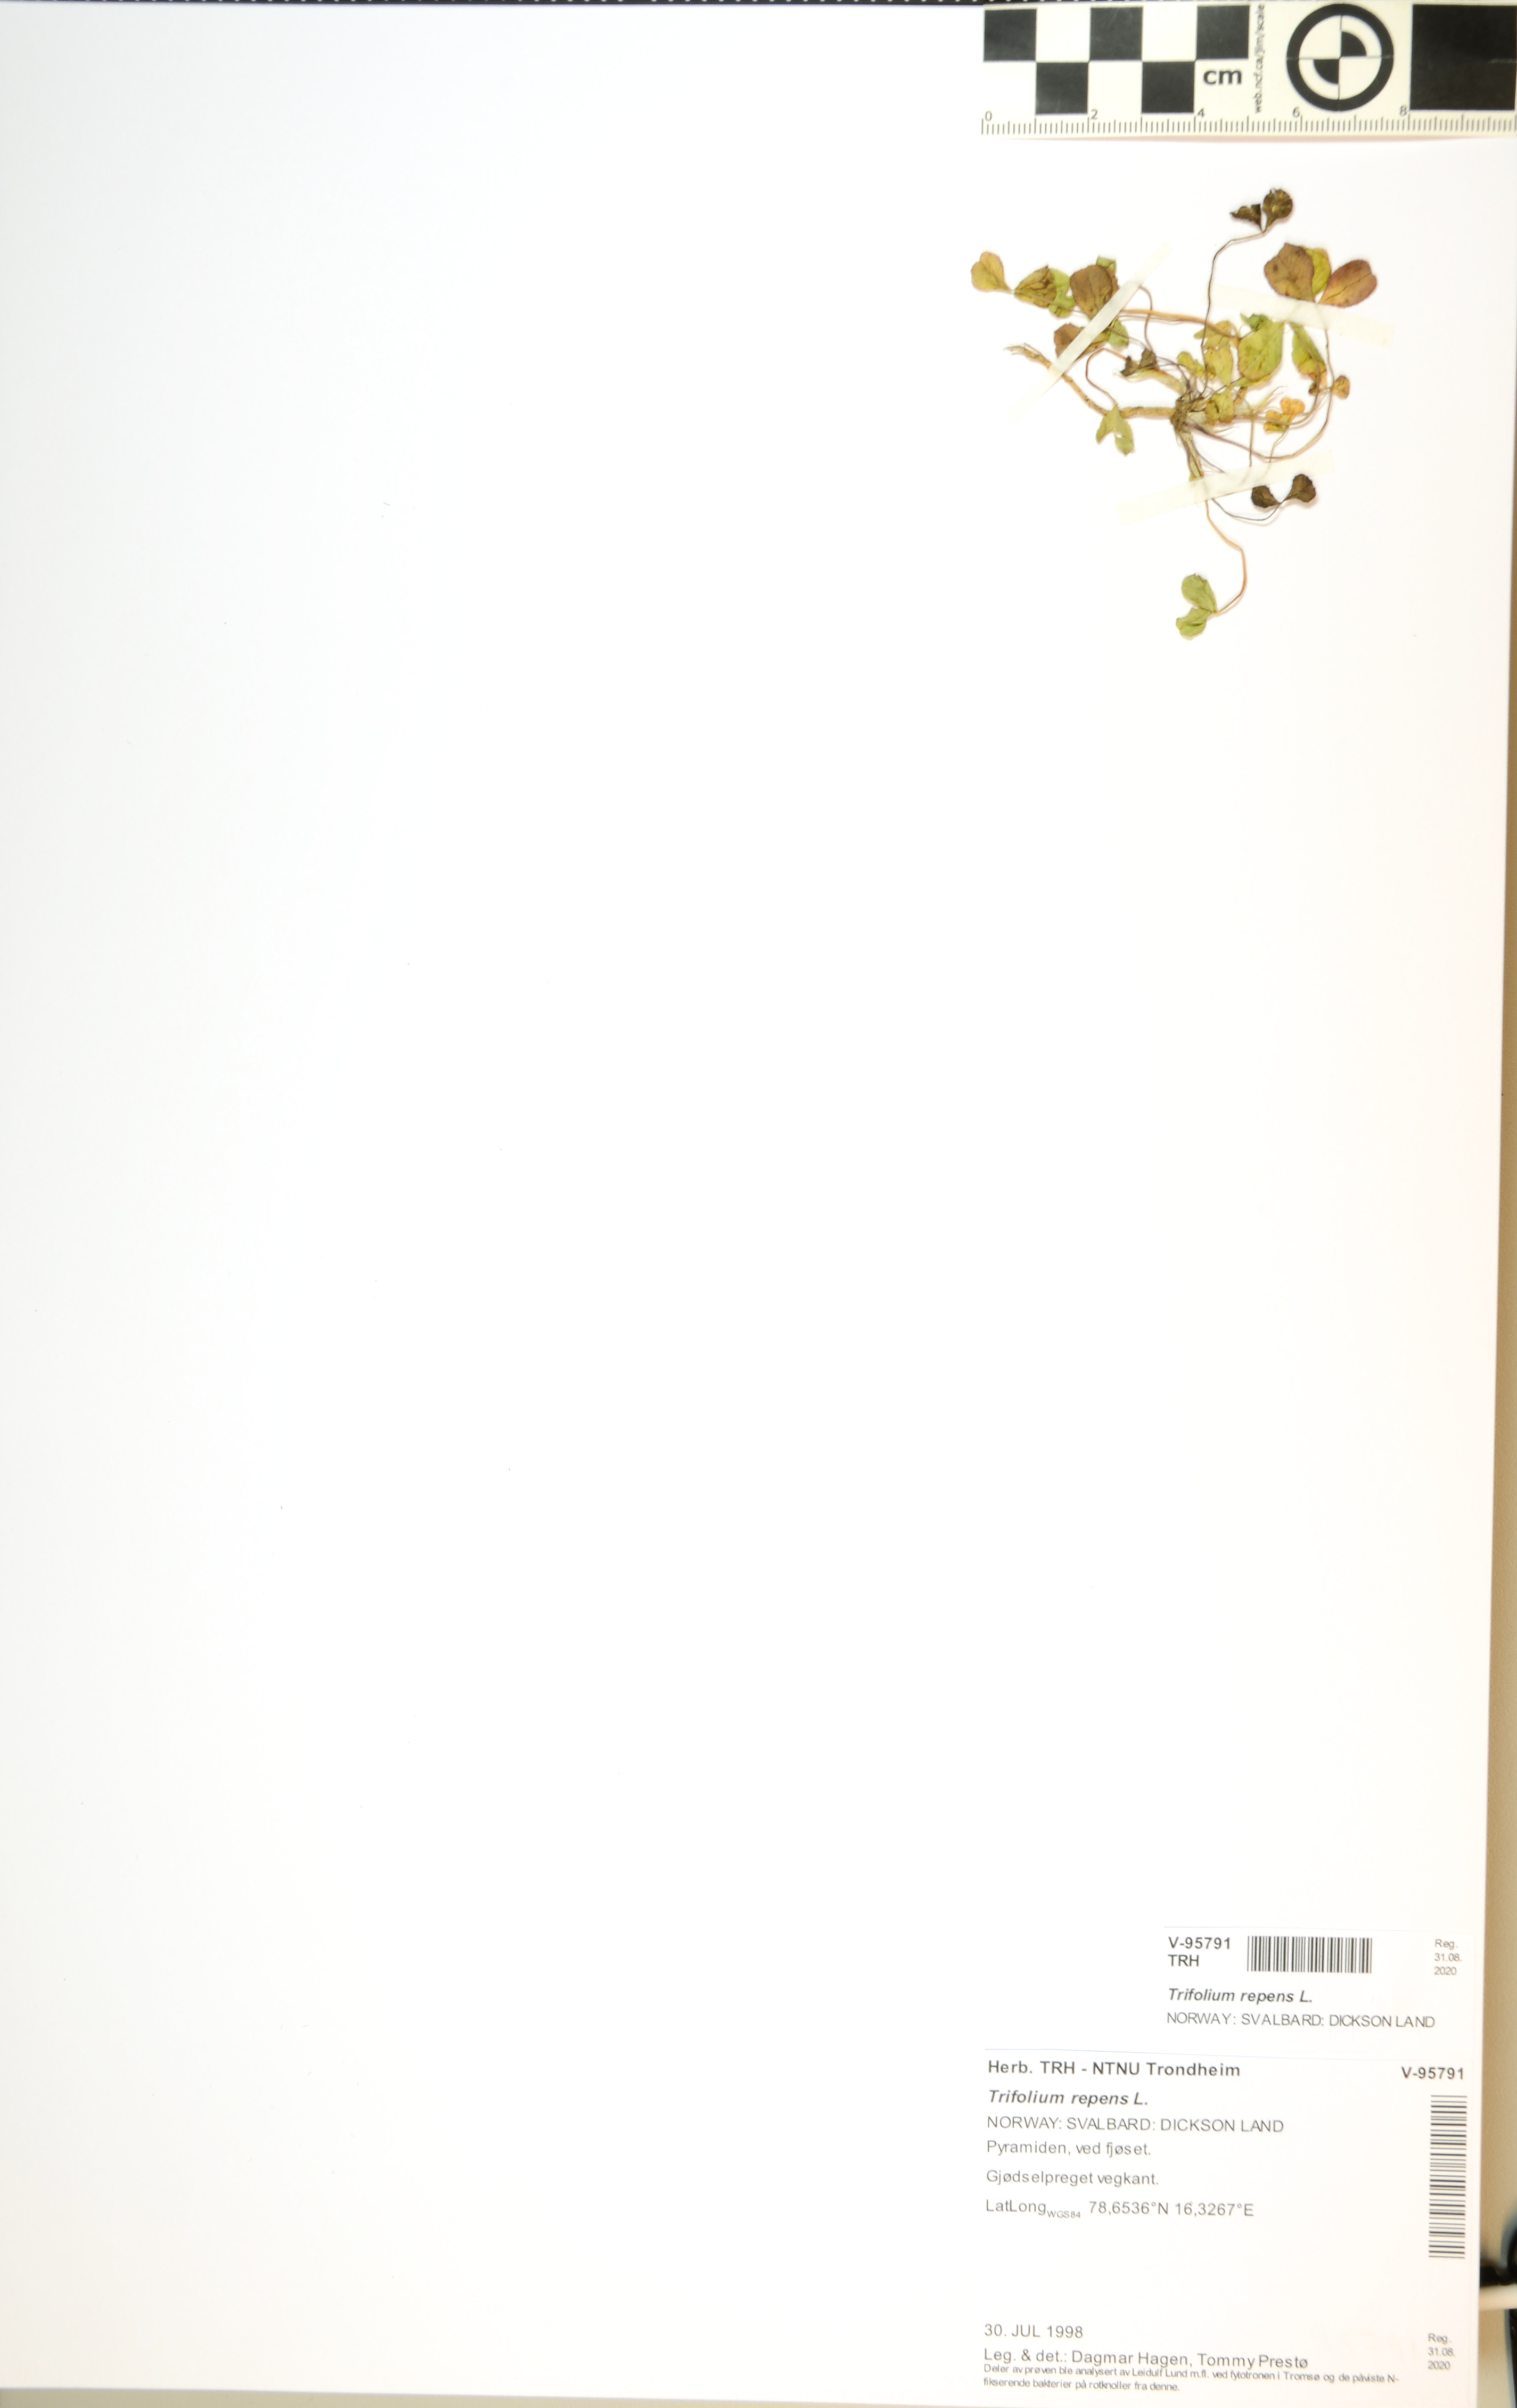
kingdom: Plantae
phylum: Tracheophyta
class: Magnoliopsida
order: Fabales
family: Fabaceae
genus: Trifolium
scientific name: Trifolium repens
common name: White clover
